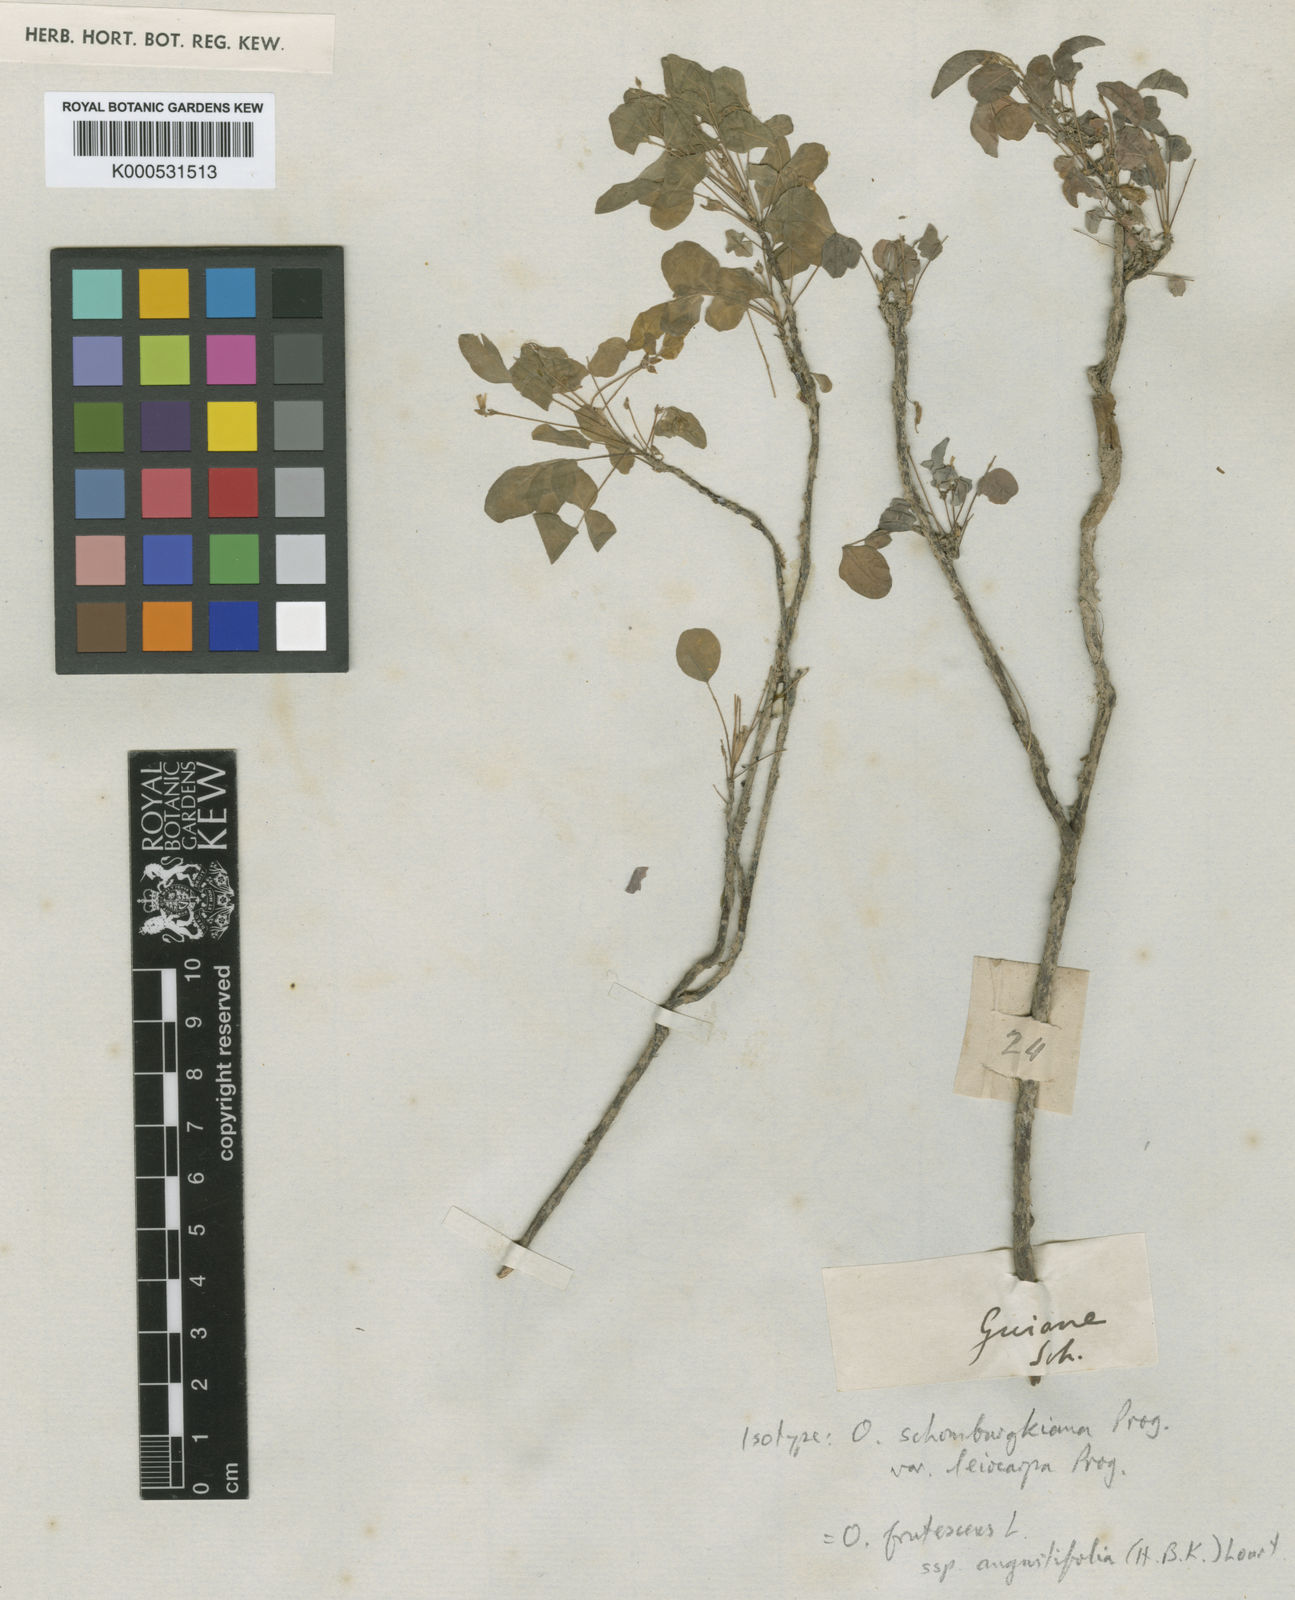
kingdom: Plantae
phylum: Tracheophyta
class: Magnoliopsida
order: Oxalidales
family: Oxalidaceae
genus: Oxalis
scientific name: Oxalis frutescens
